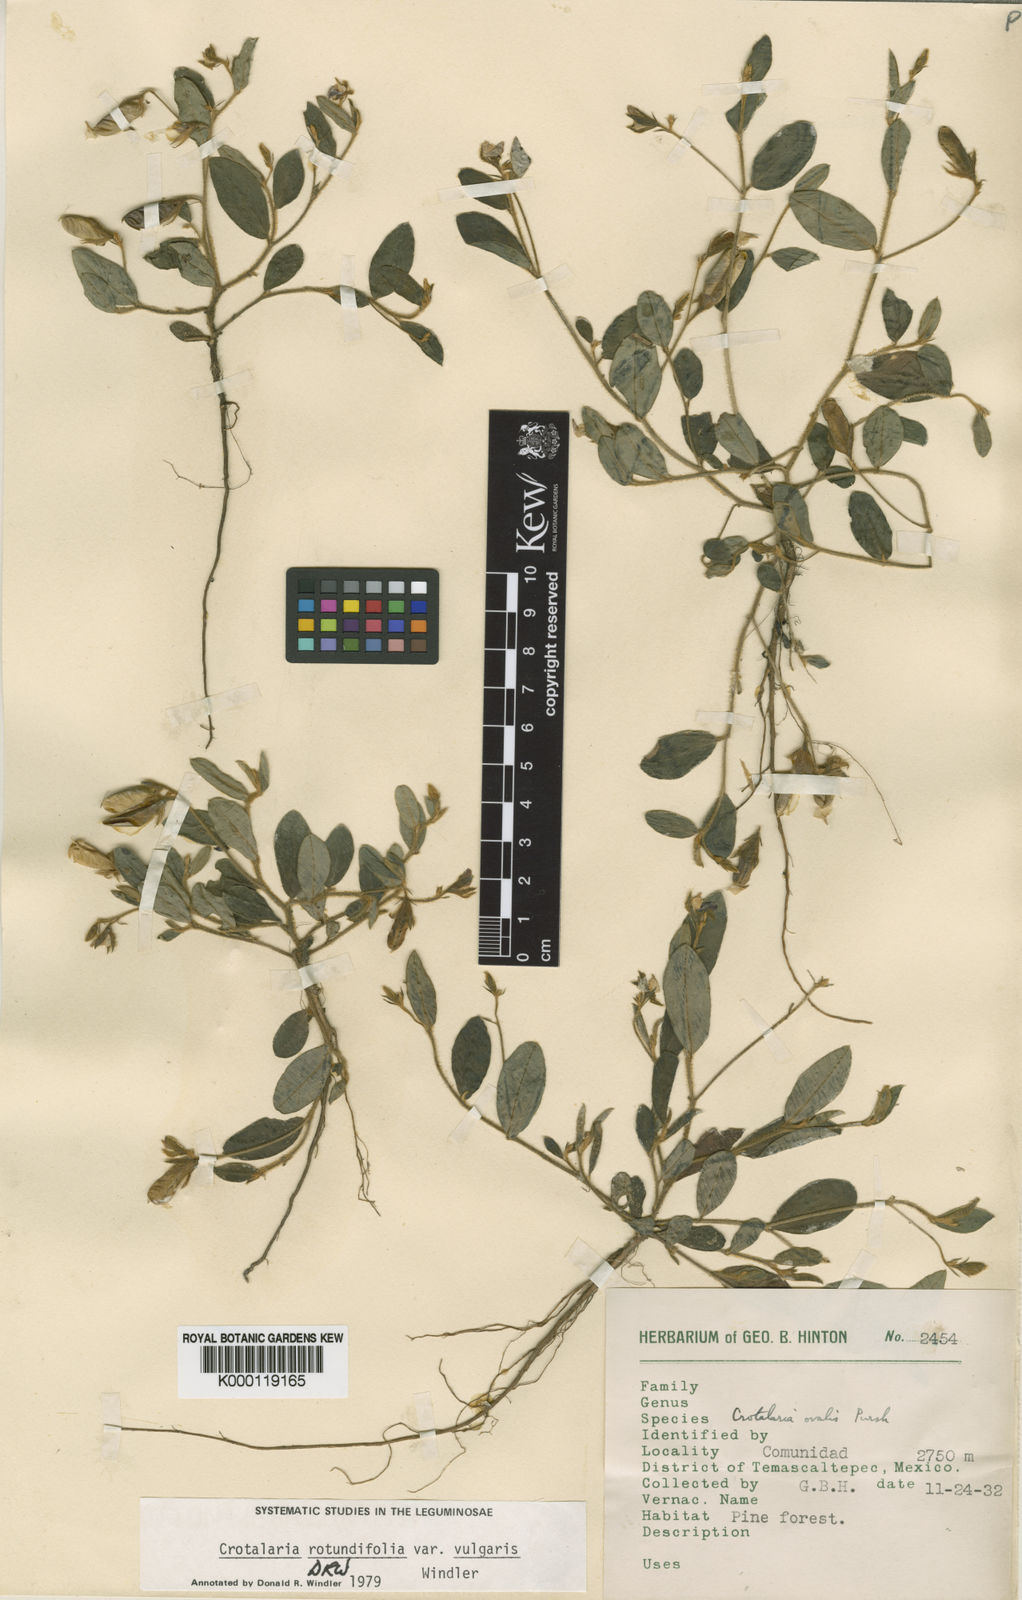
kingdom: Plantae
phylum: Tracheophyta
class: Magnoliopsida
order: Fabales
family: Fabaceae
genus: Crotalaria
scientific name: Crotalaria rotundifolia
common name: Prostrate rattlebox
